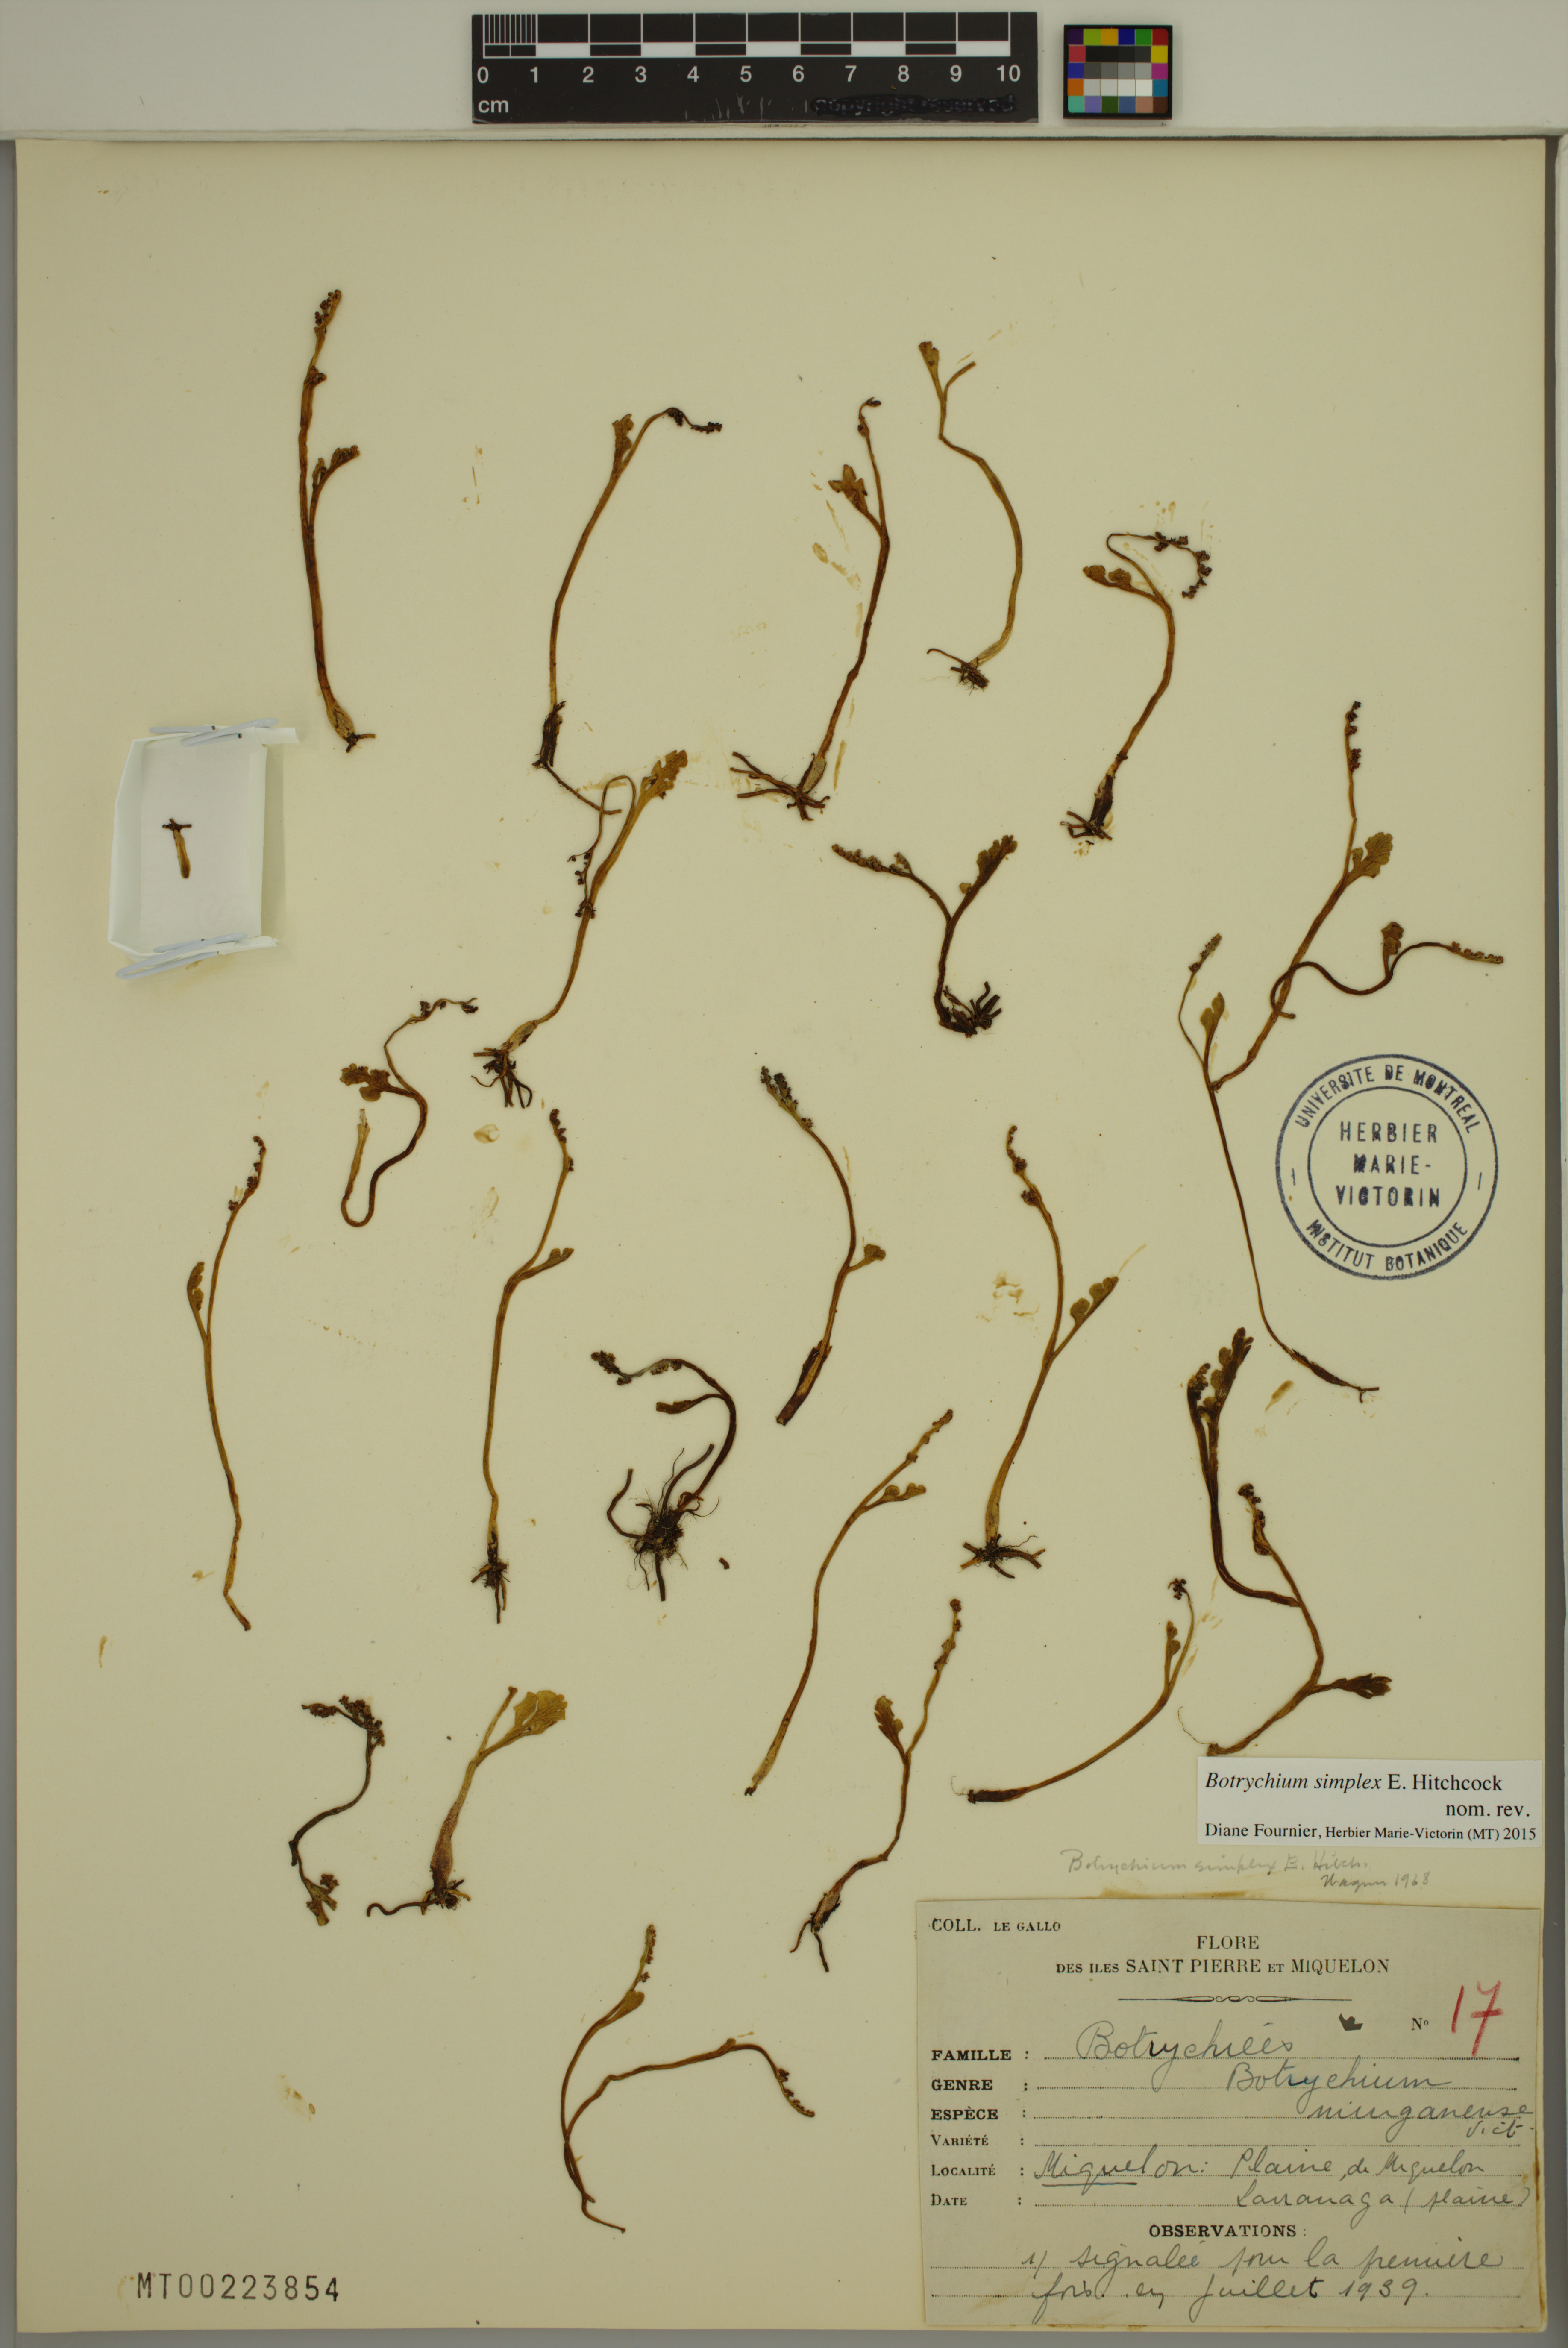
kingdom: Plantae
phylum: Tracheophyta
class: Polypodiopsida
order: Ophioglossales
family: Ophioglossaceae
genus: Botrychium
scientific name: Botrychium simplex
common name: Least moonwort
